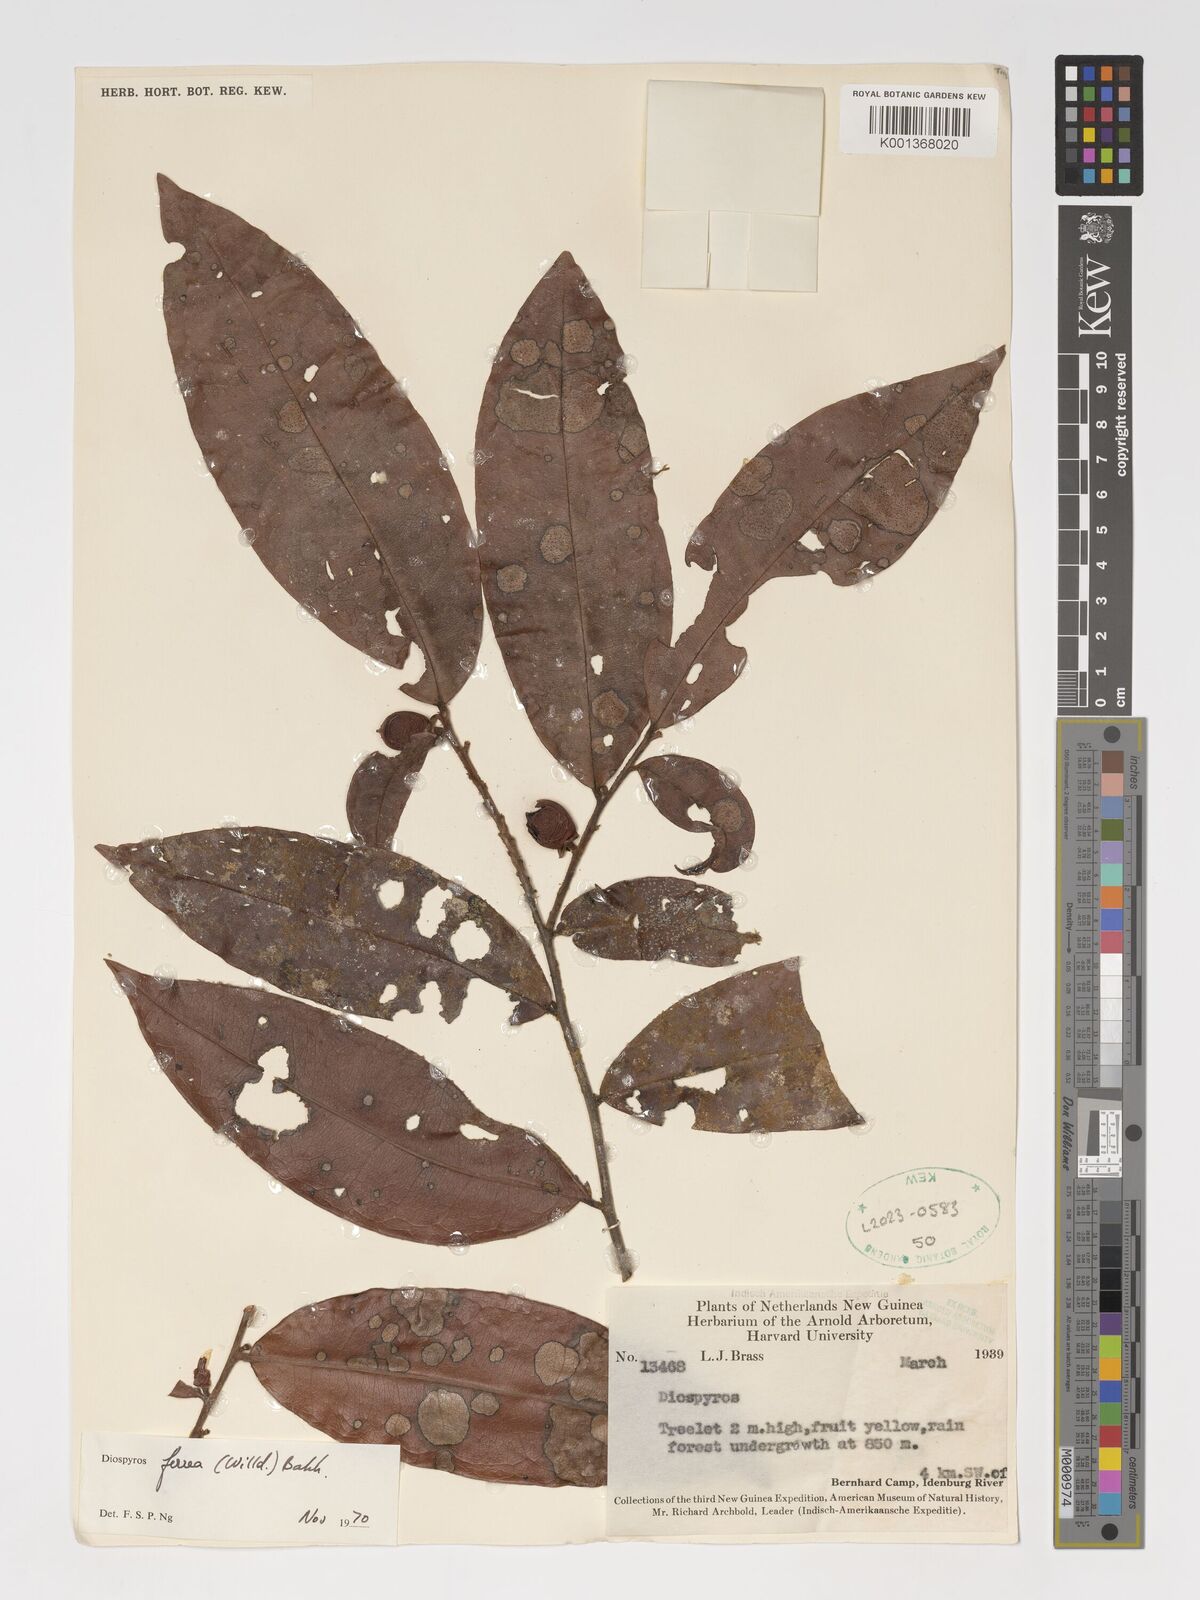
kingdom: Plantae
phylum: Tracheophyta
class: Magnoliopsida
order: Ericales
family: Ebenaceae
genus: Diospyros
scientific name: Diospyros ferrea
